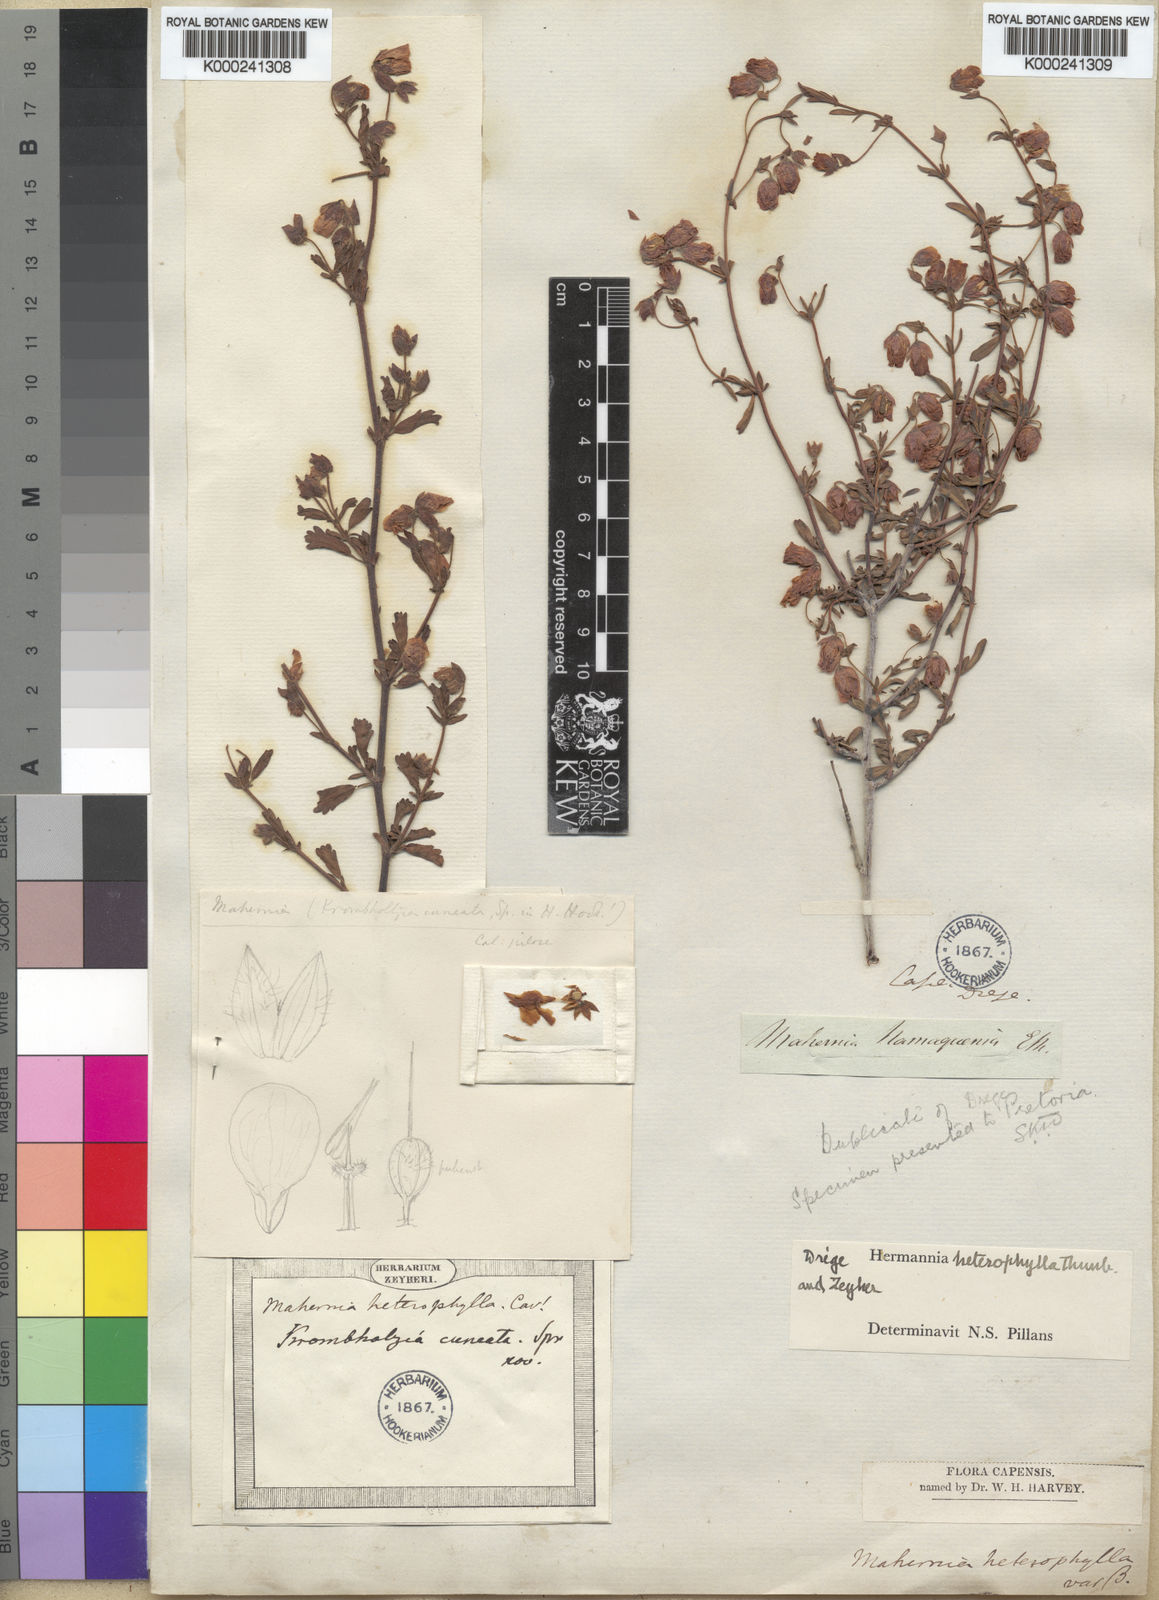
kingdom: Plantae
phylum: Tracheophyta
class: Magnoliopsida
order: Malvales
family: Malvaceae
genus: Hermannia
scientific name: Hermannia heterophylla
